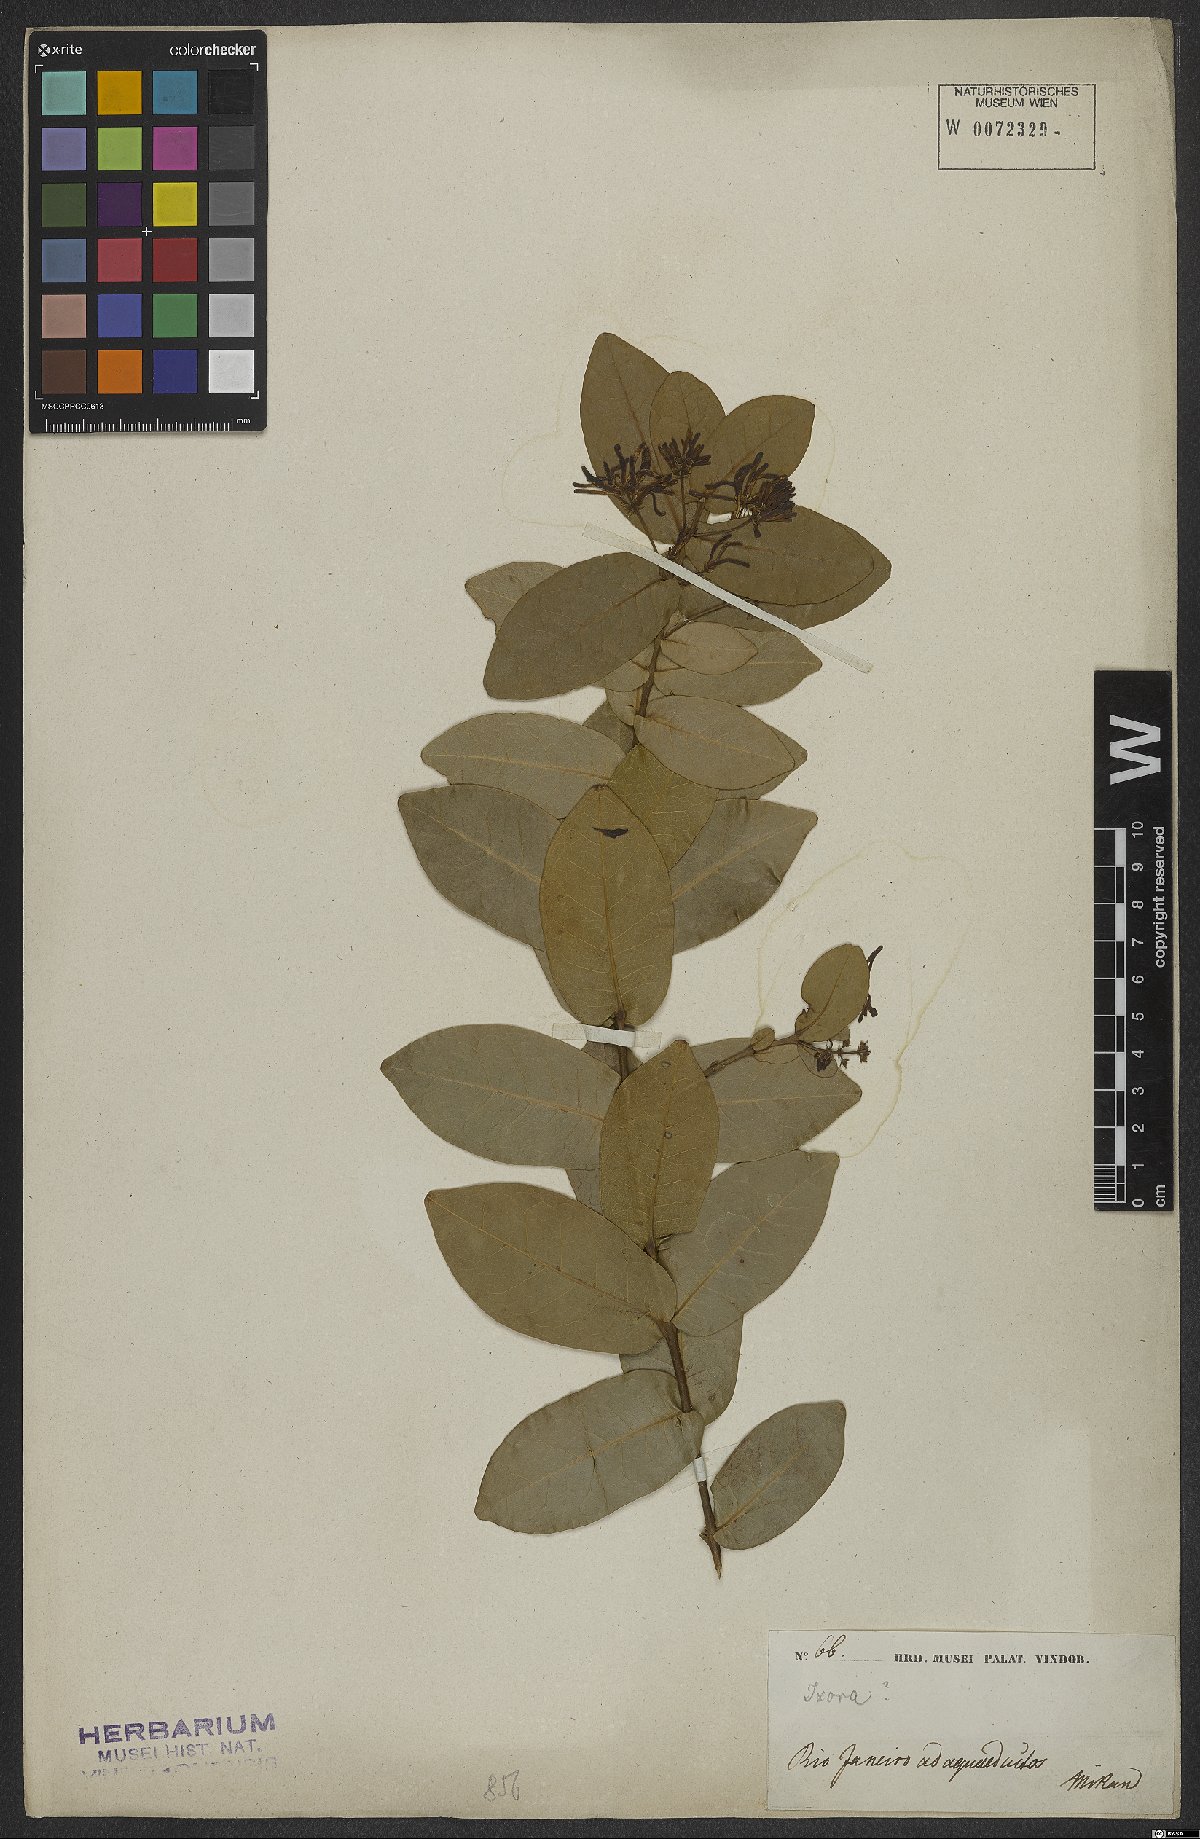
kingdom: Plantae
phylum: Tracheophyta
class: Magnoliopsida
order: Gentianales
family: Rubiaceae
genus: Ixora
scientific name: Ixora
